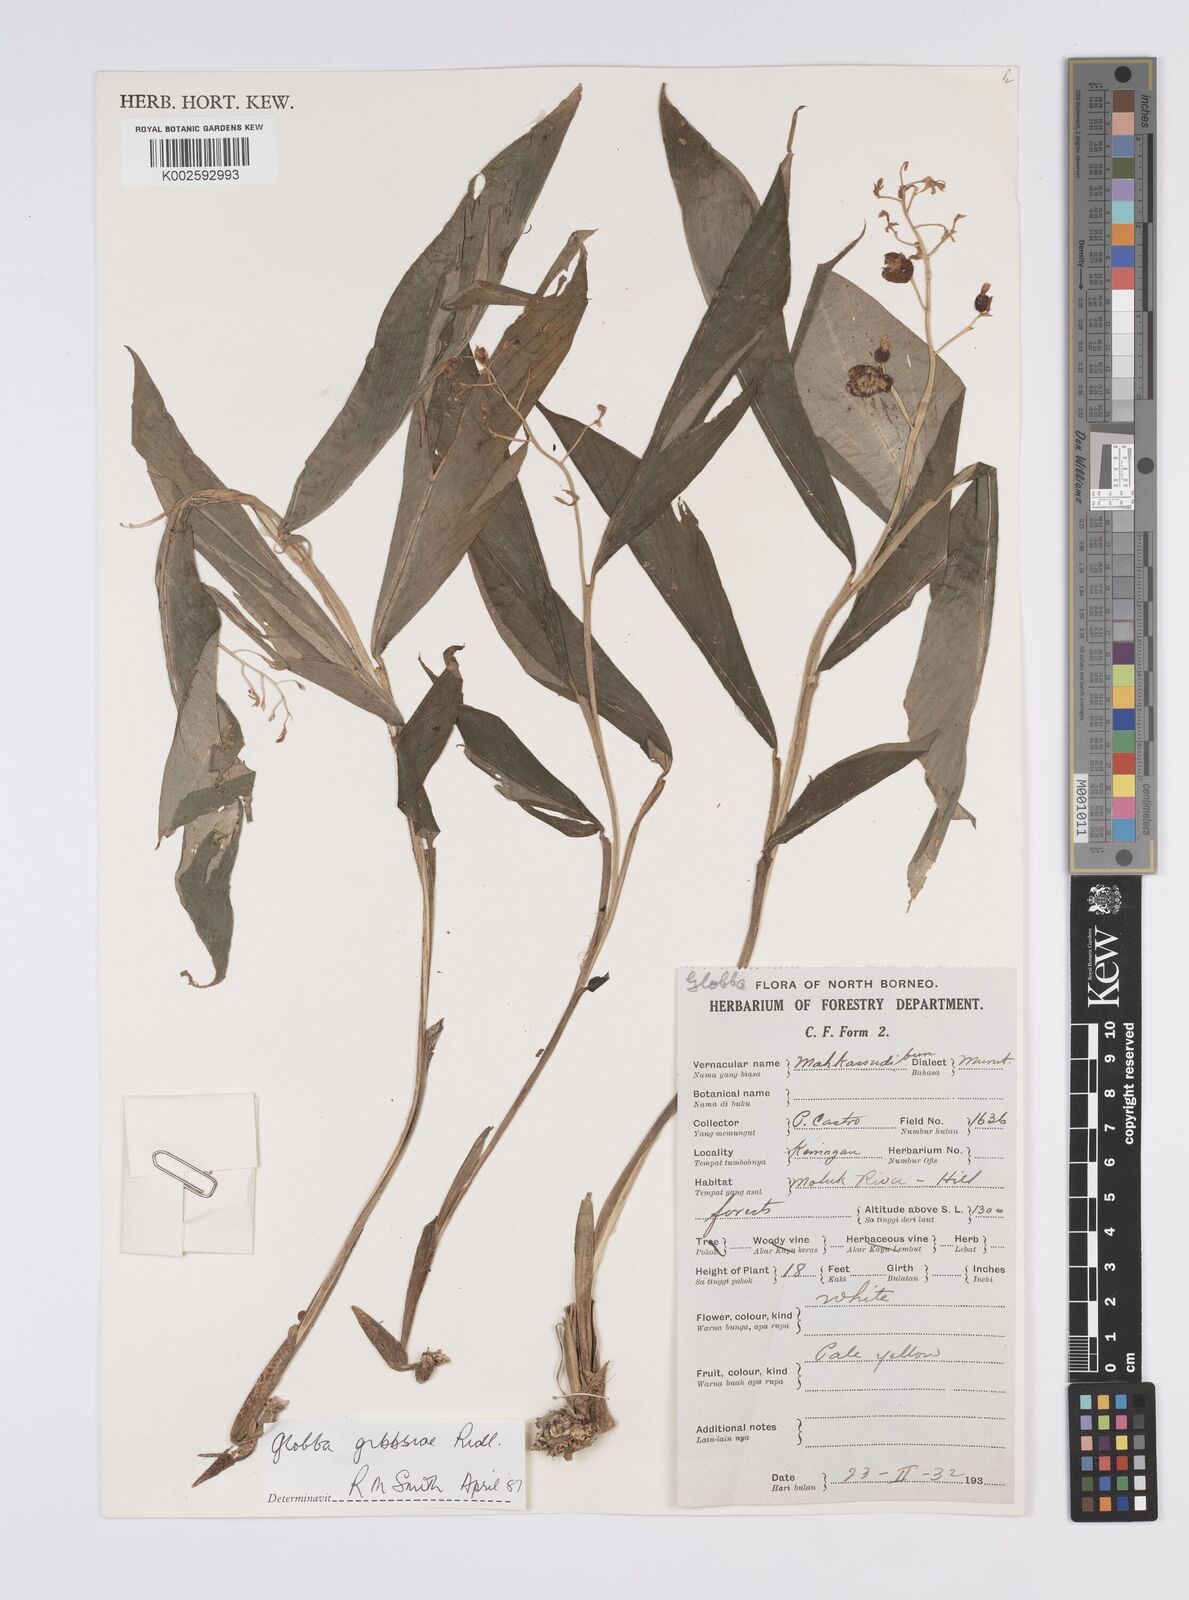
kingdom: Plantae
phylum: Tracheophyta
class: Liliopsida
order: Zingiberales
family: Zingiberaceae
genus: Globba
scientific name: Globba tricolor
